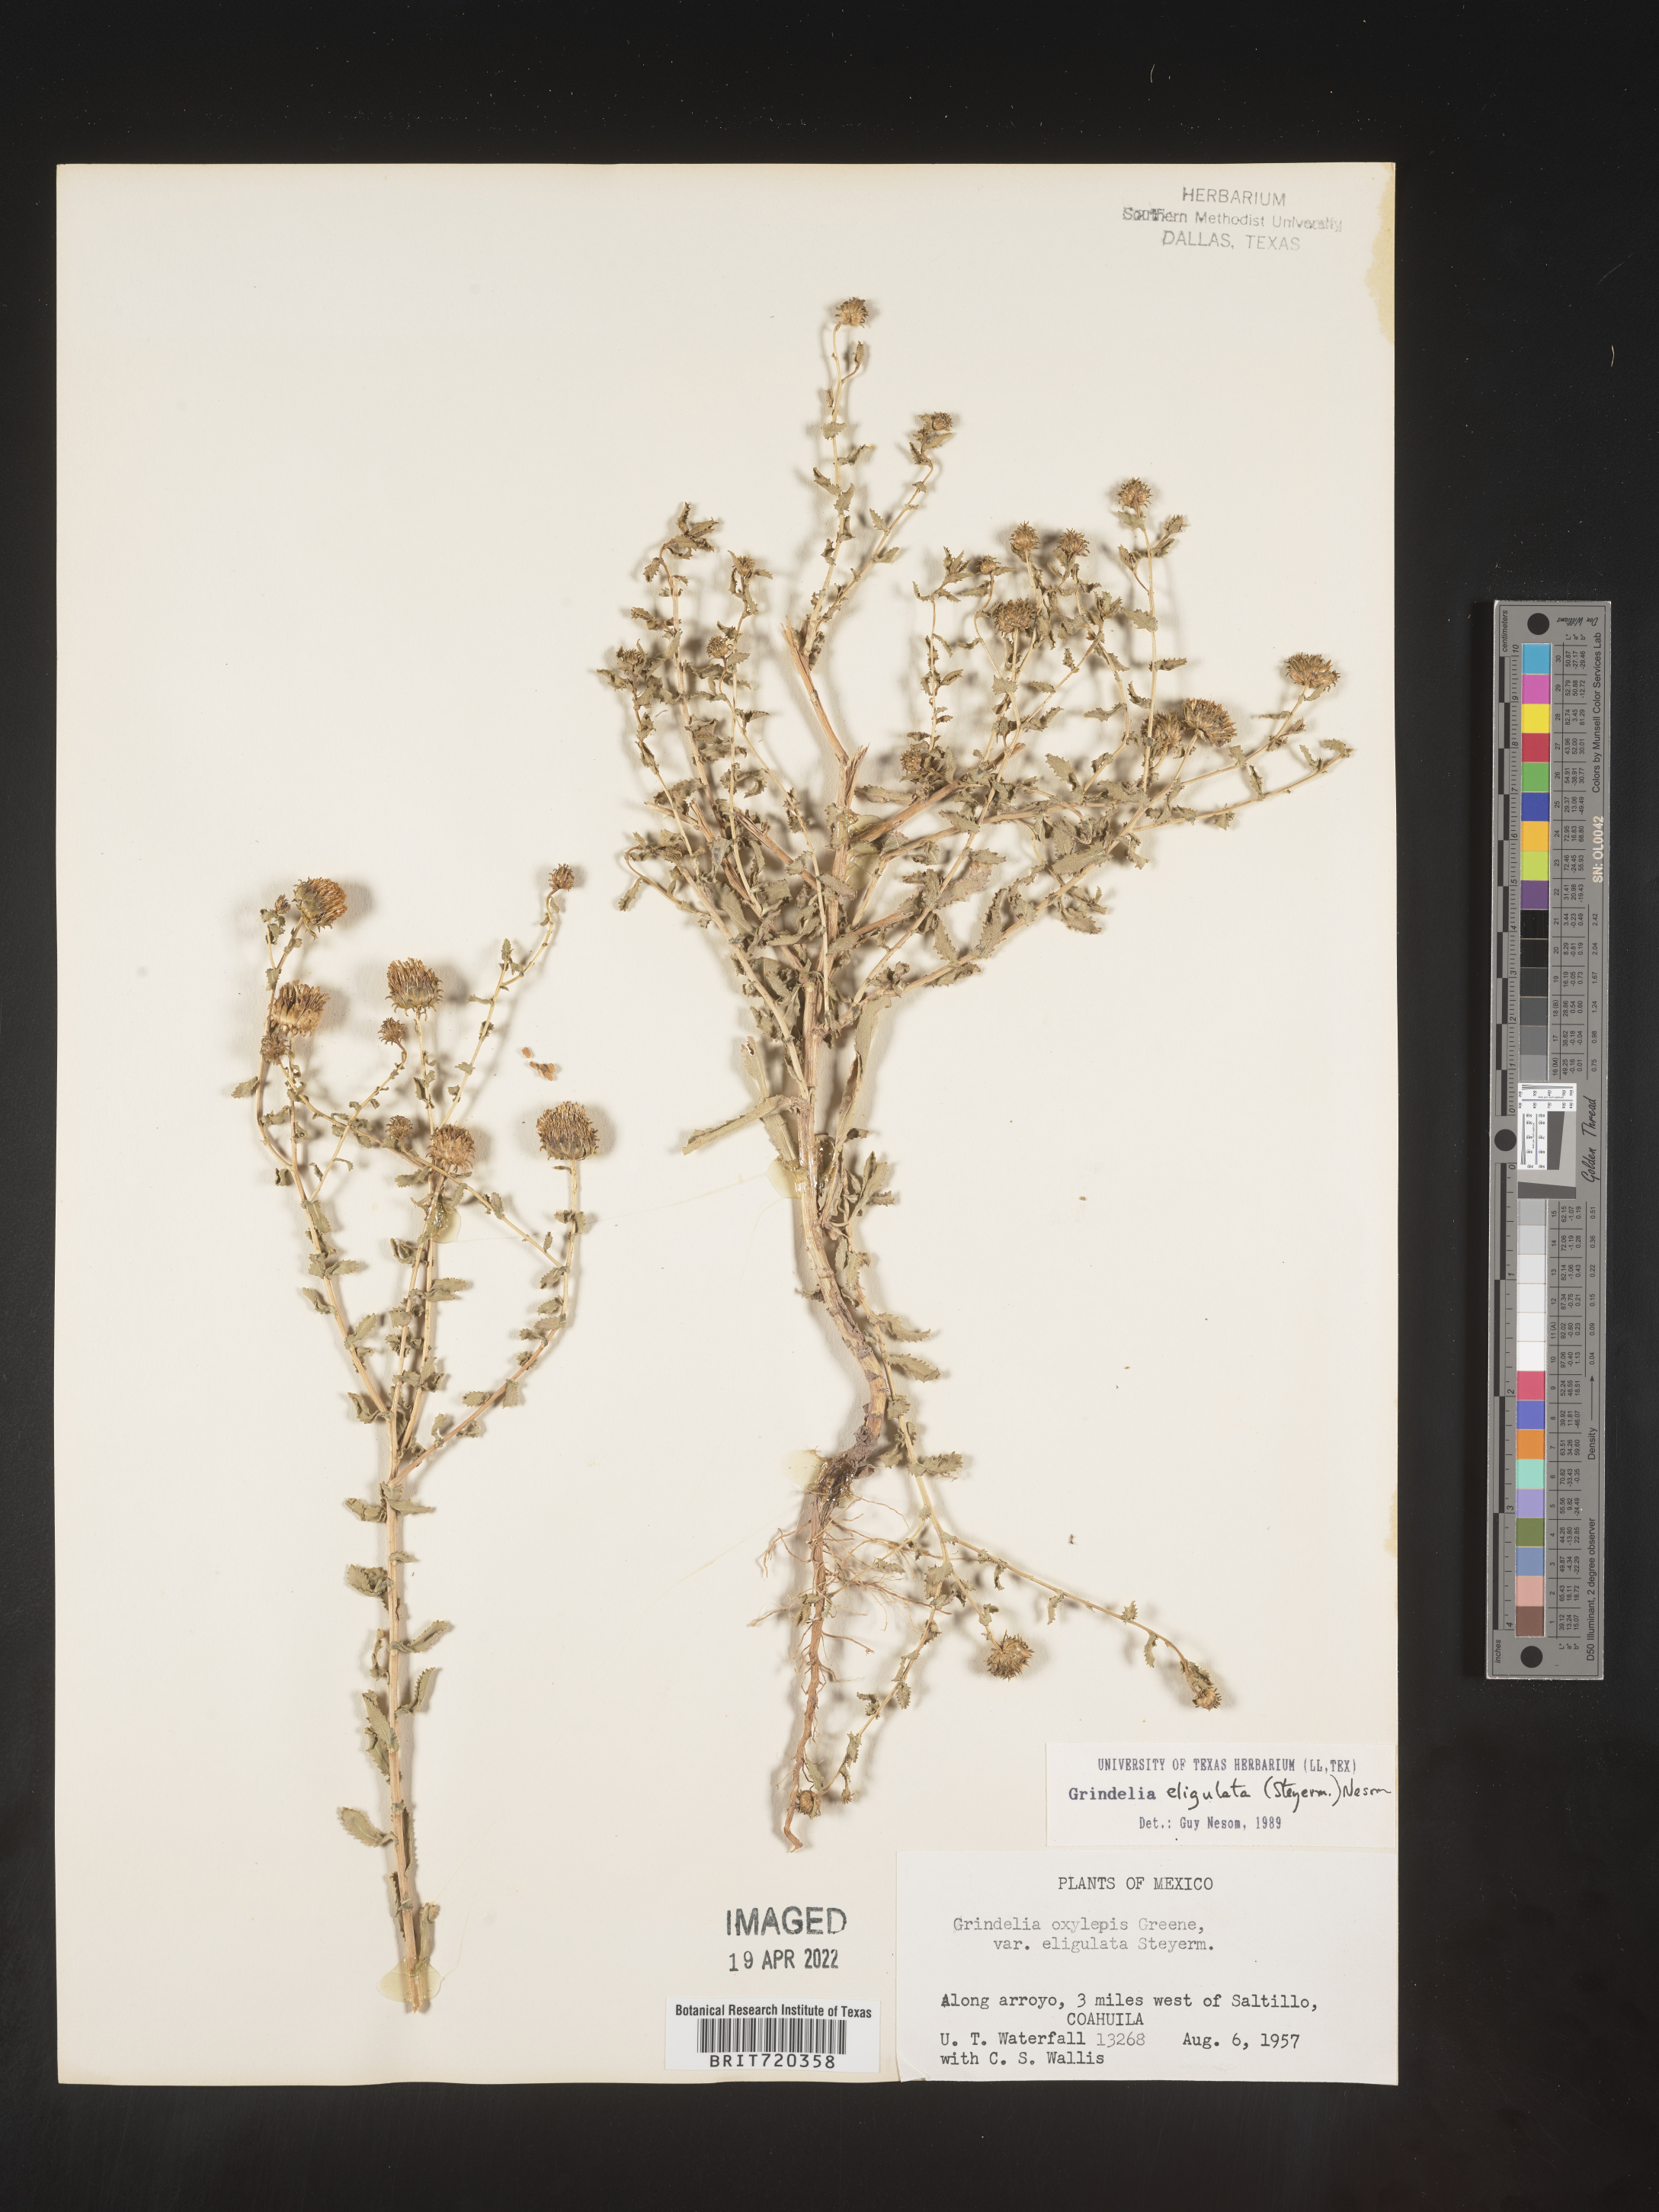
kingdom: Plantae
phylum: Tracheophyta
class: Magnoliopsida
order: Asterales
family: Asteraceae
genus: Grindelia
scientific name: Grindelia
